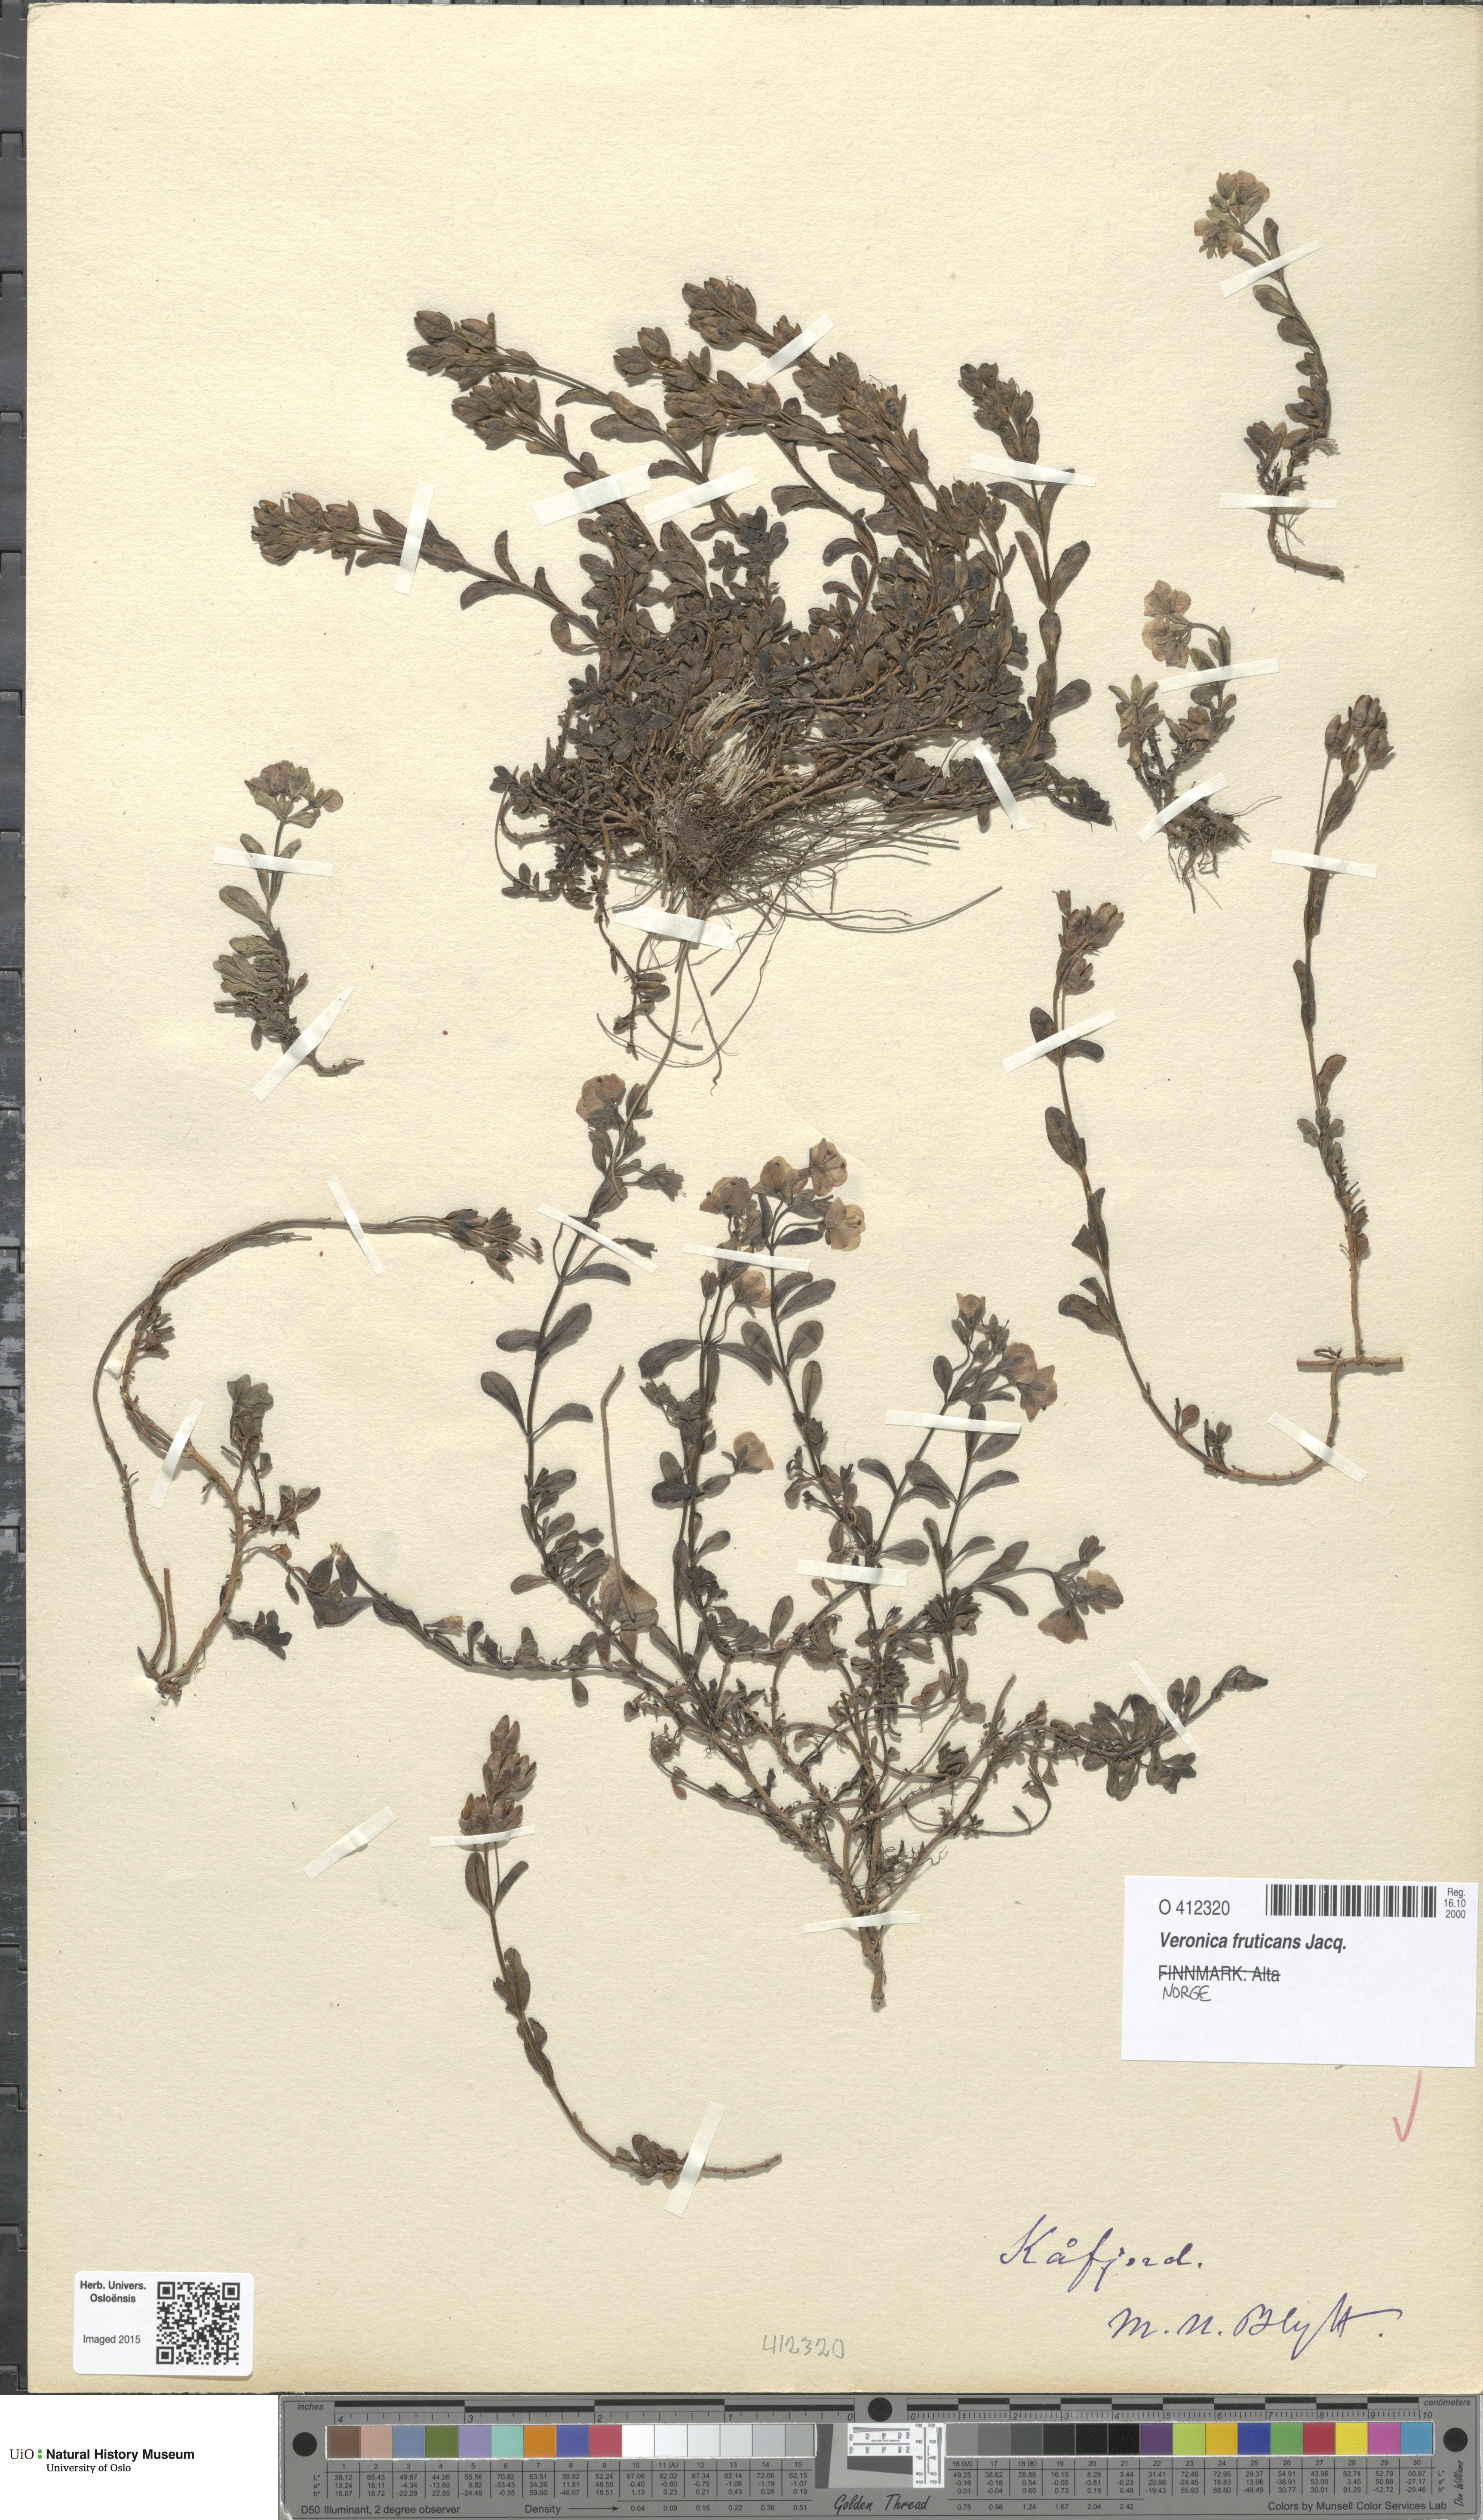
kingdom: Plantae
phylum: Tracheophyta
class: Magnoliopsida
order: Lamiales
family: Plantaginaceae
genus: Veronica
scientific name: Veronica fruticans
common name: Rock speedwell
